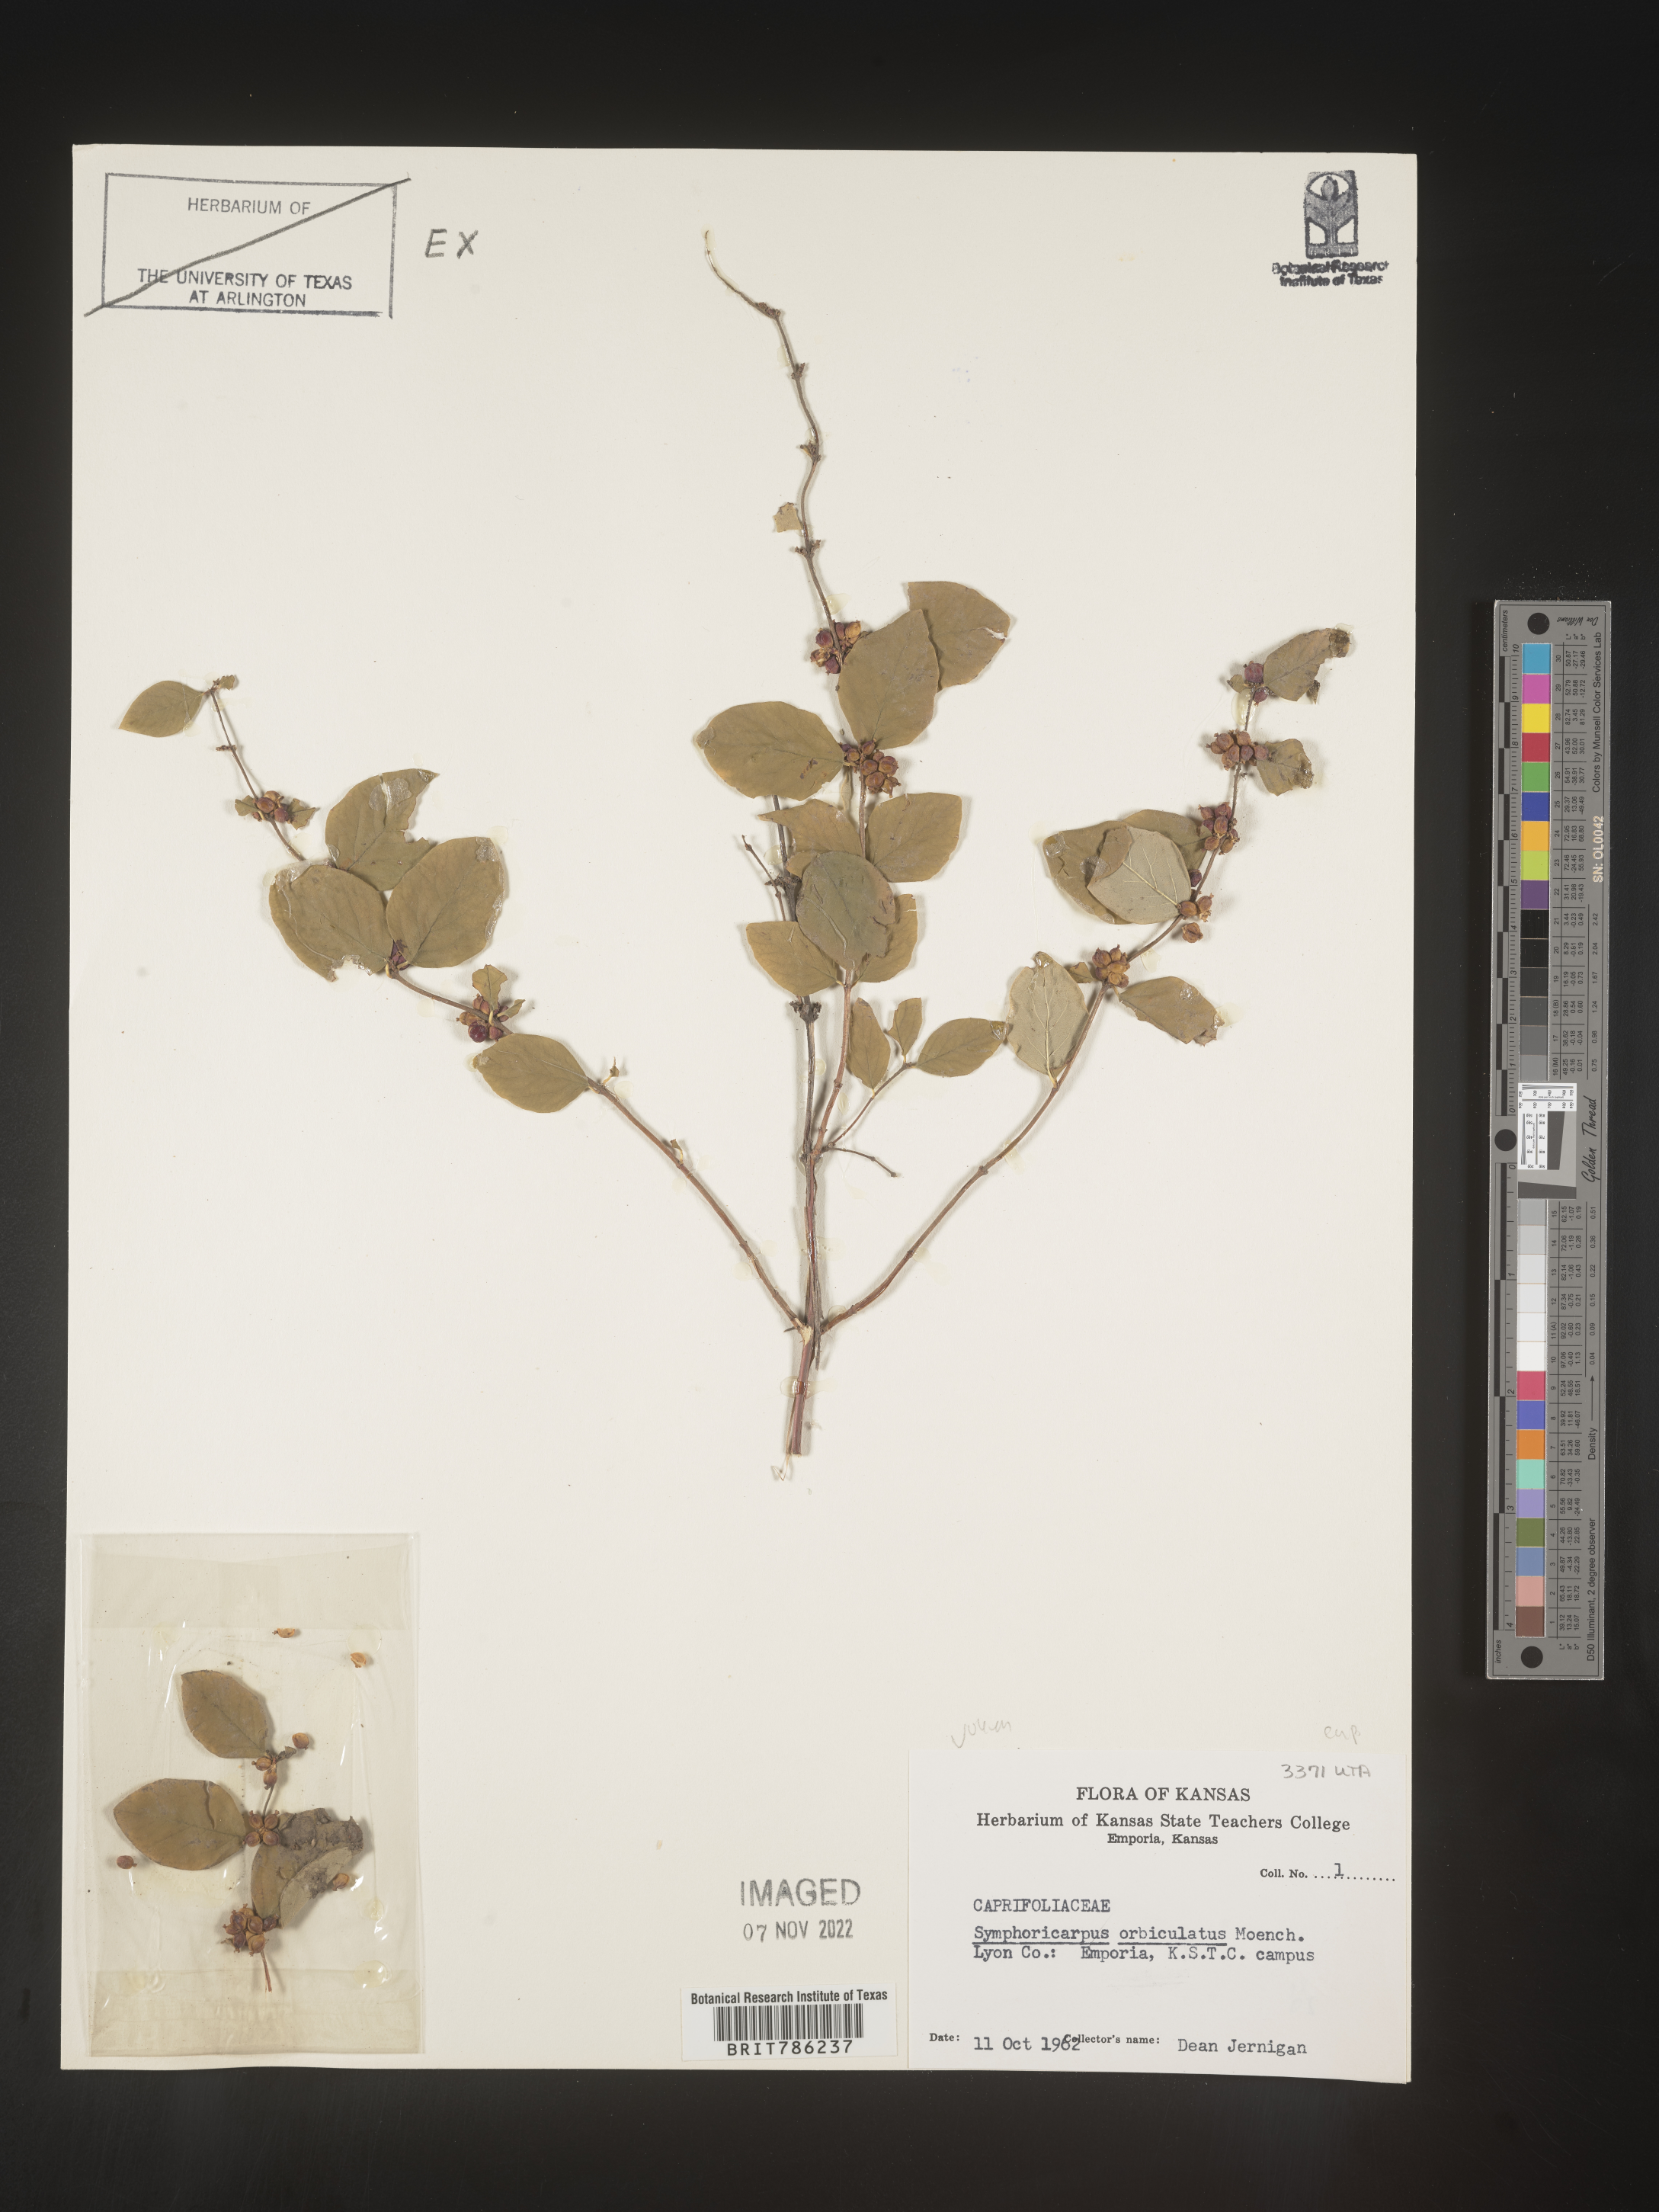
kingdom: Plantae
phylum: Tracheophyta
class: Magnoliopsida
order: Dipsacales
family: Caprifoliaceae
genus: Symphoricarpos
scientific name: Symphoricarpos orbiculatus
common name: Coralberry
